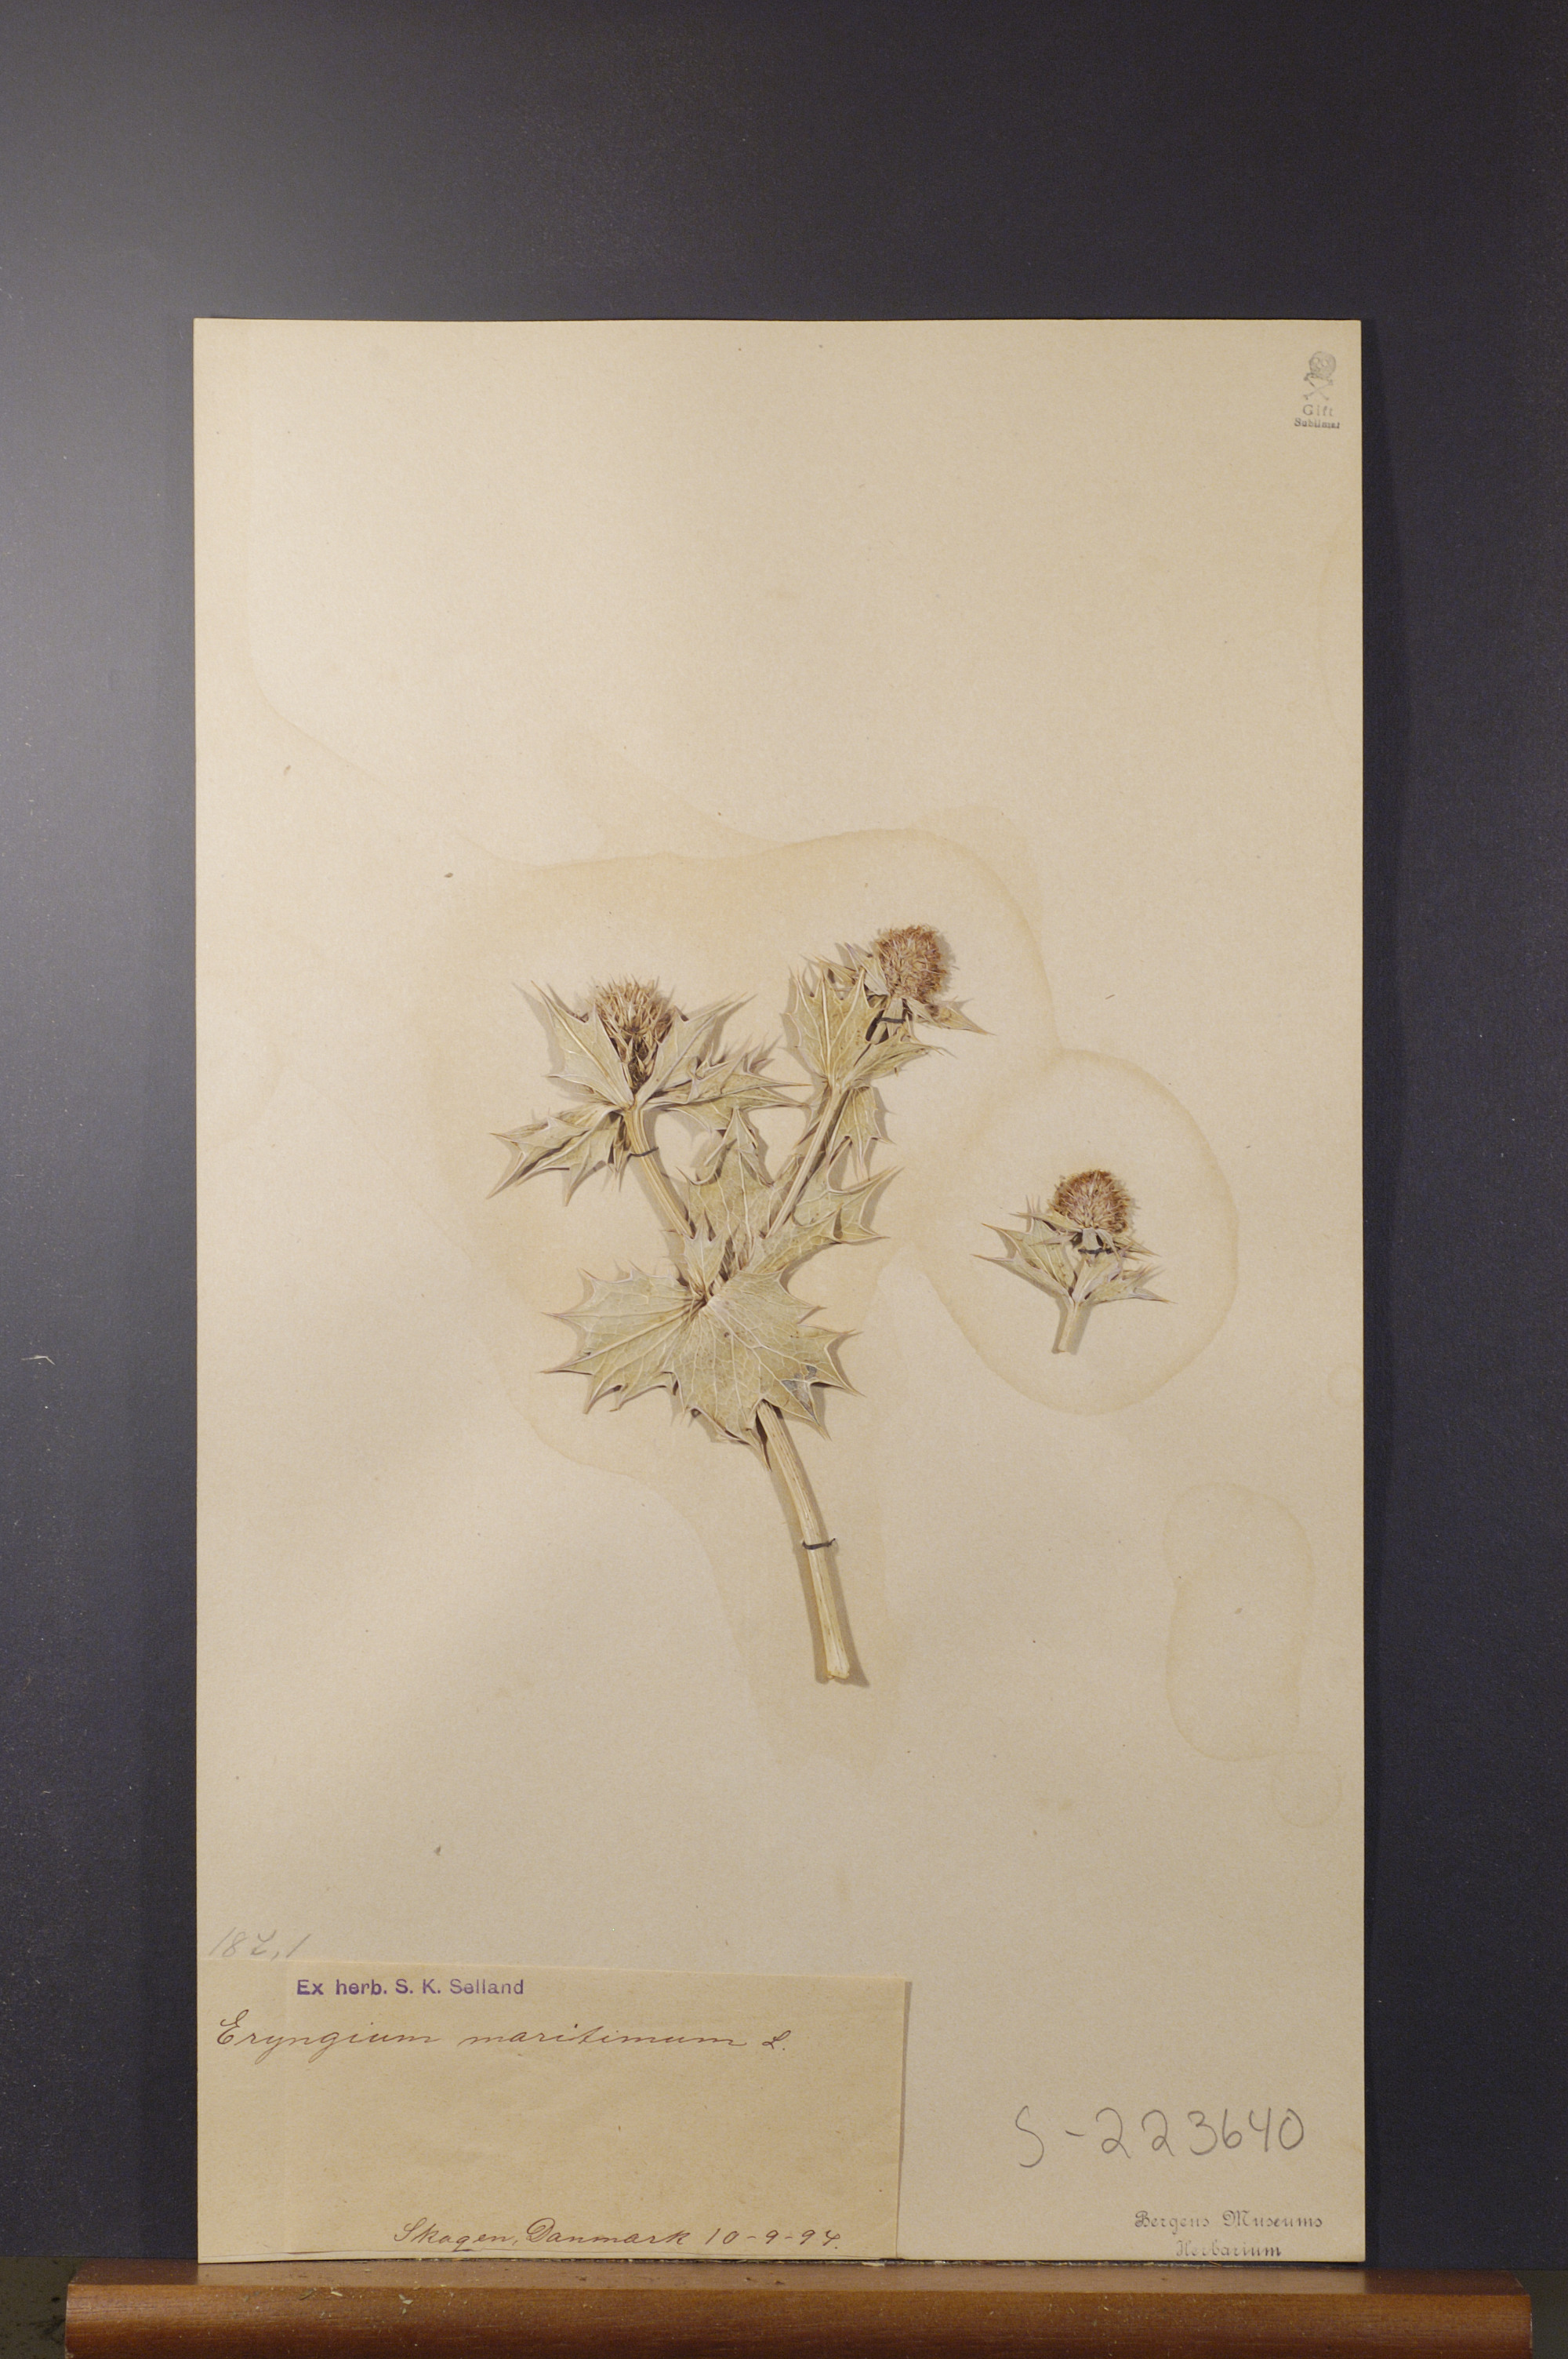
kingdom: Plantae
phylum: Tracheophyta
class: Magnoliopsida
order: Apiales
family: Apiaceae
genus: Eryngium
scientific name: Eryngium maritimum
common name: Sea-holly
